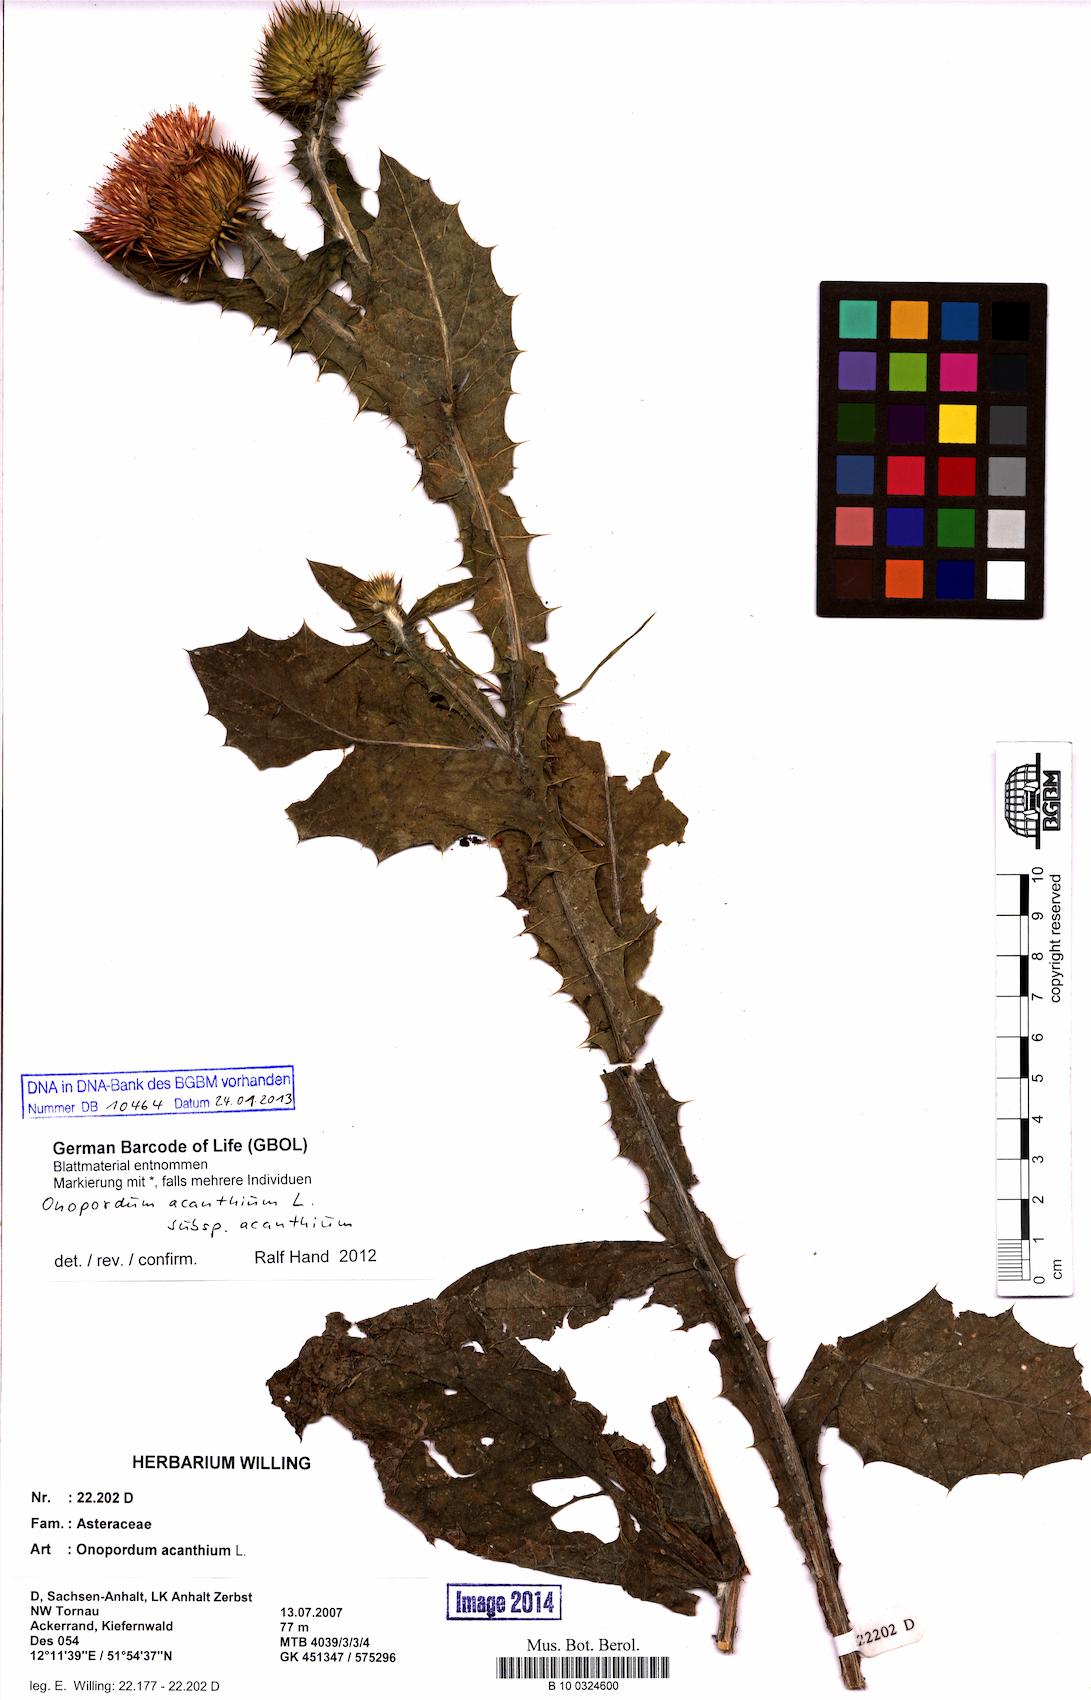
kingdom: Plantae
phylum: Tracheophyta
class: Magnoliopsida
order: Asterales
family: Asteraceae
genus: Onopordum
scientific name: Onopordum acanthium
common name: Scotch thistle
